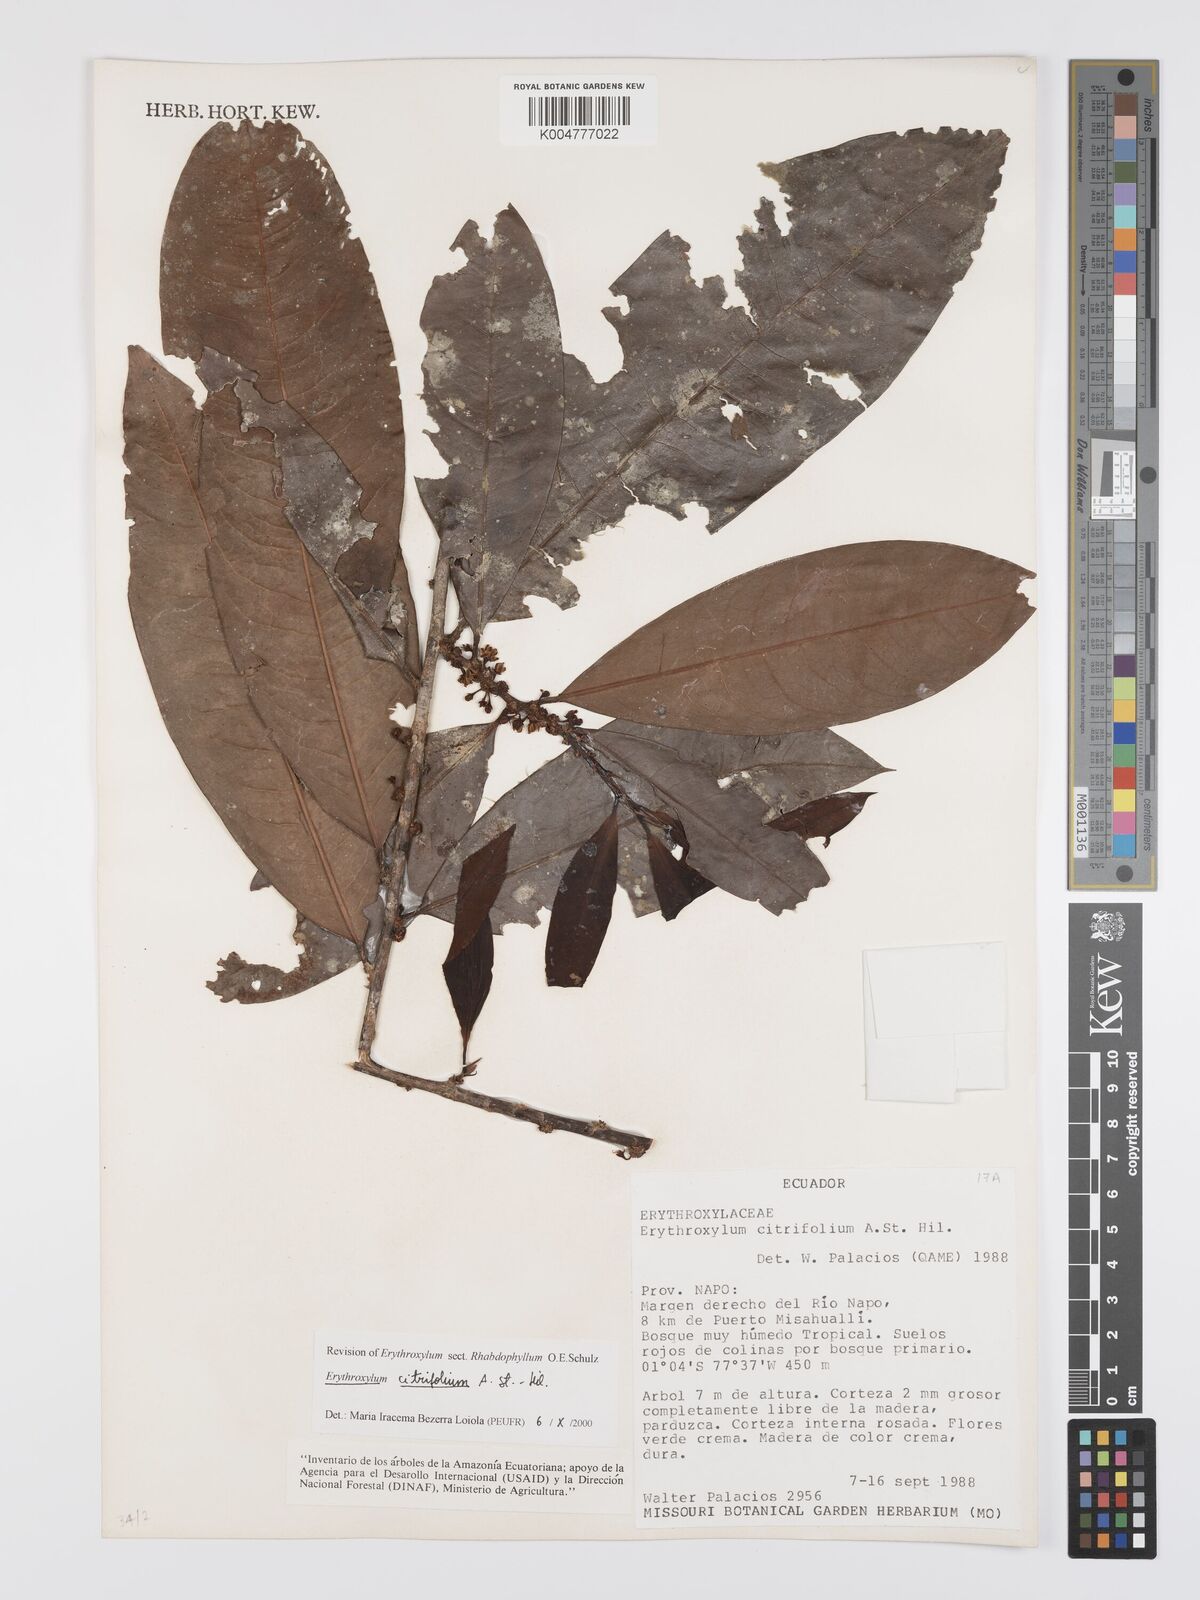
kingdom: Plantae
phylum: Tracheophyta
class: Magnoliopsida
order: Malpighiales
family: Erythroxylaceae
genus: Erythroxylum
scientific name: Erythroxylum citrifolium
